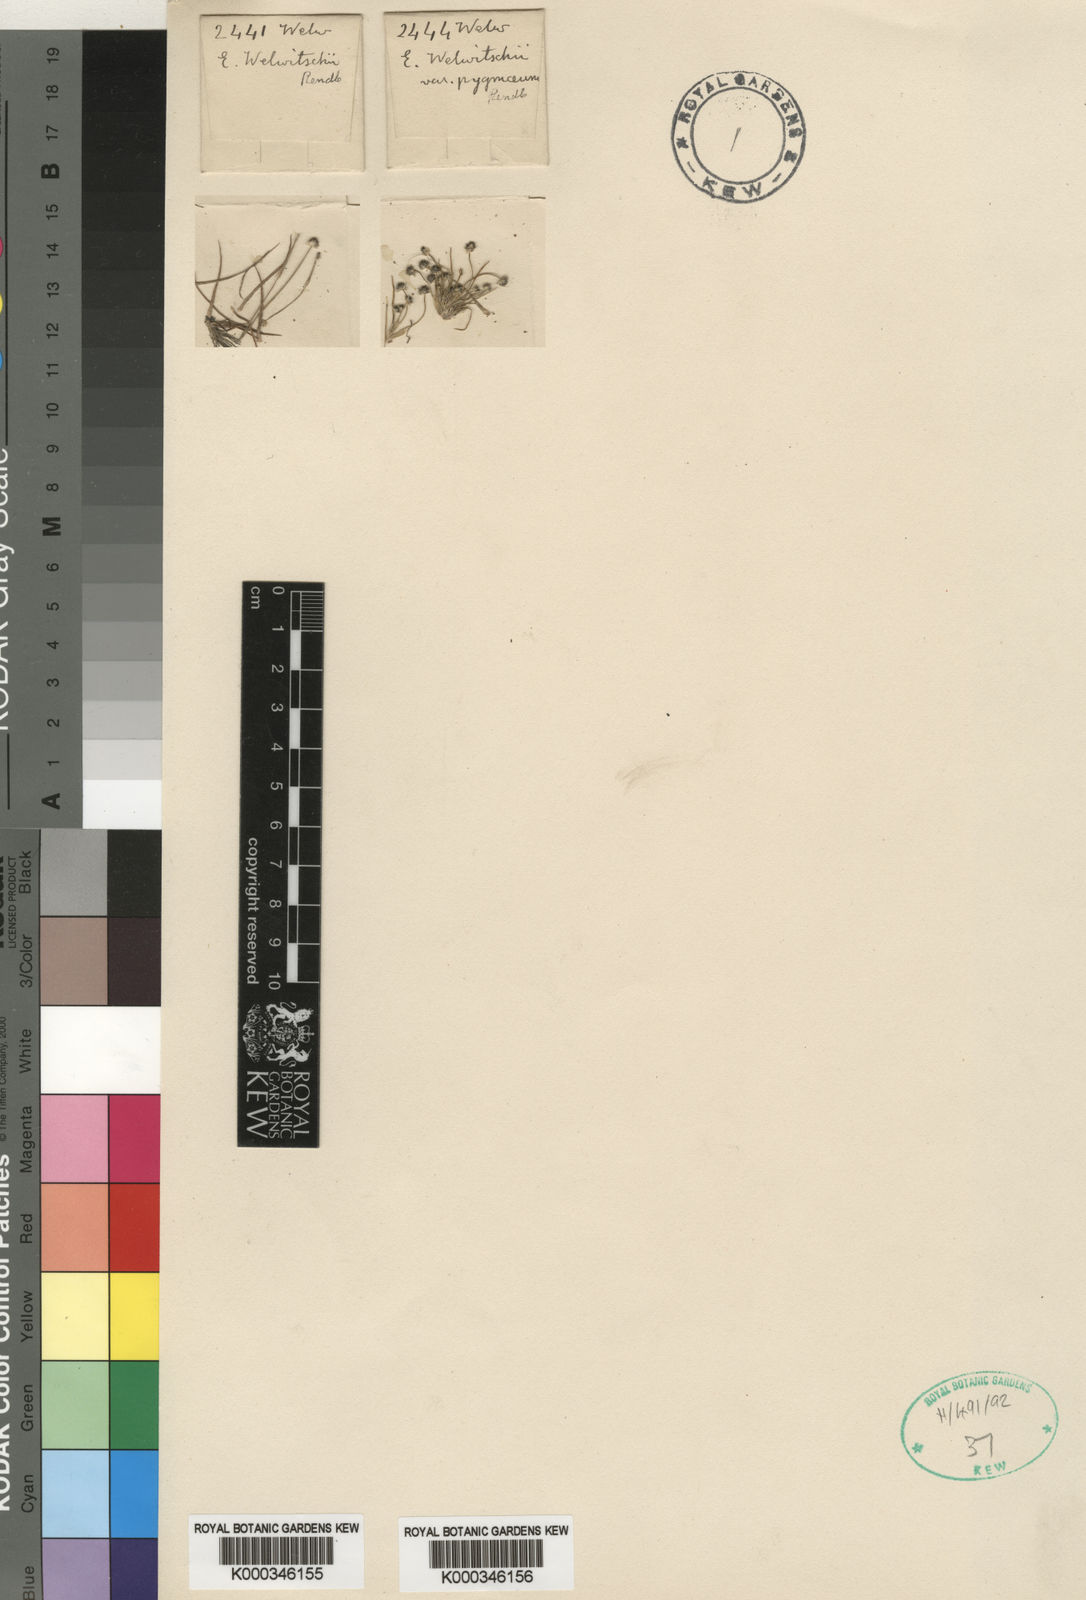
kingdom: Plantae
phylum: Tracheophyta
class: Liliopsida
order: Poales
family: Eriocaulaceae
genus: Eriocaulon
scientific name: Eriocaulon welwitschii
